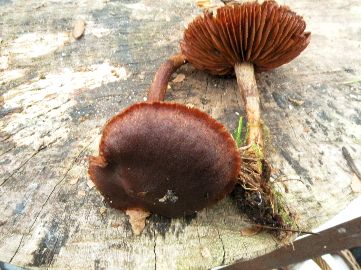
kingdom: Fungi
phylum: Basidiomycota
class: Agaricomycetes
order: Agaricales
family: Cortinariaceae
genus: Cortinarius
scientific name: Cortinarius
